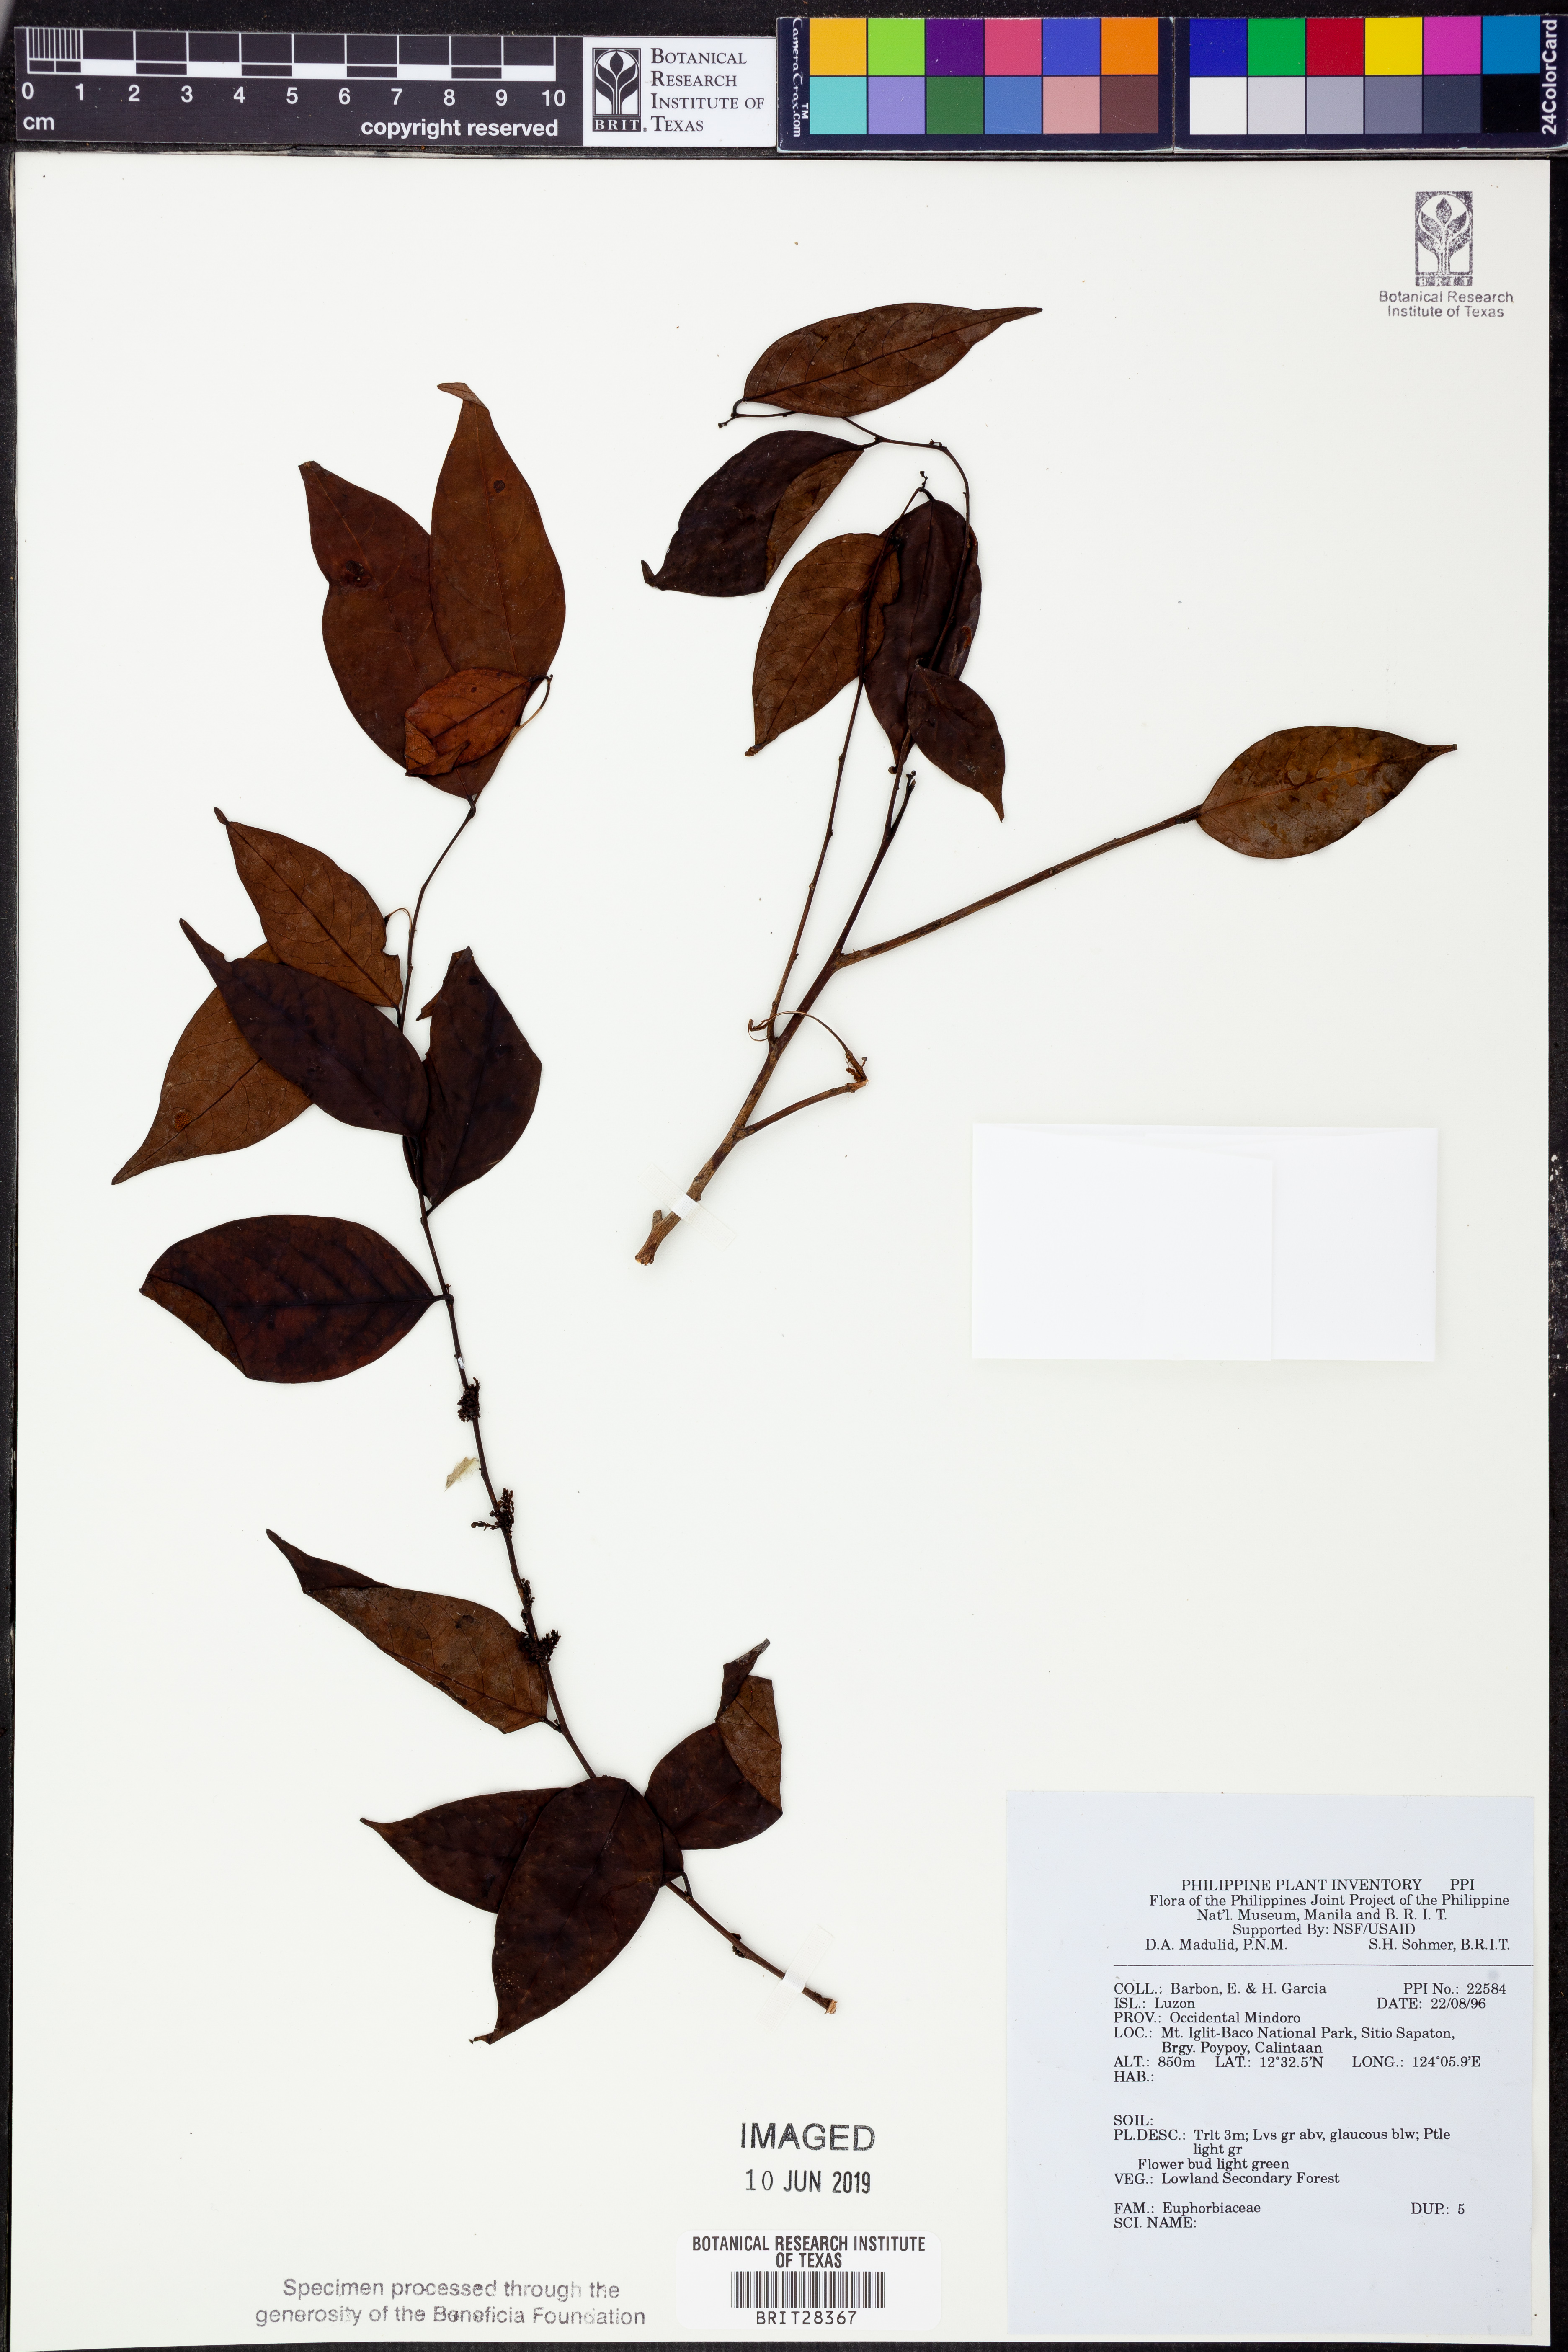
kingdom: Plantae
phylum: Tracheophyta
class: Magnoliopsida
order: Malpighiales
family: Euphorbiaceae
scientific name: Euphorbiaceae
